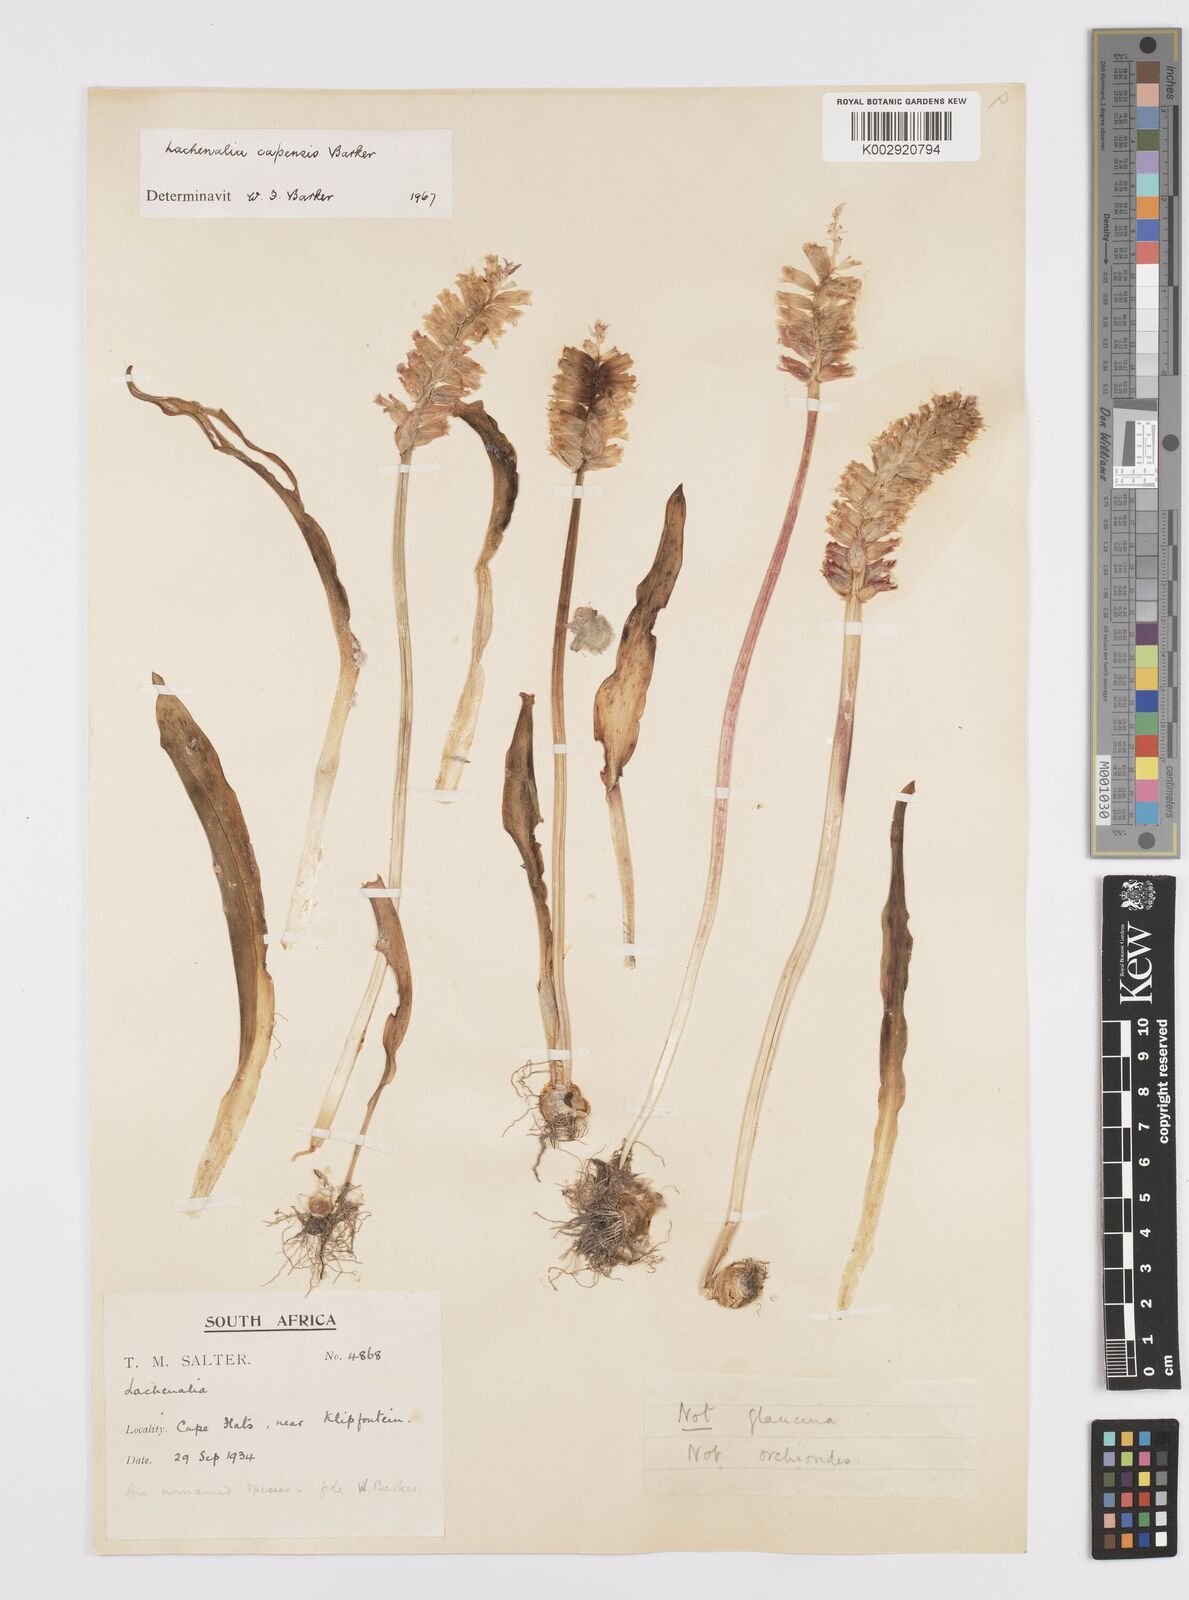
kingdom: Plantae
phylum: Tracheophyta
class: Liliopsida
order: Asparagales
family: Asparagaceae
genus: Lachenalia
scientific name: Lachenalia capensis
